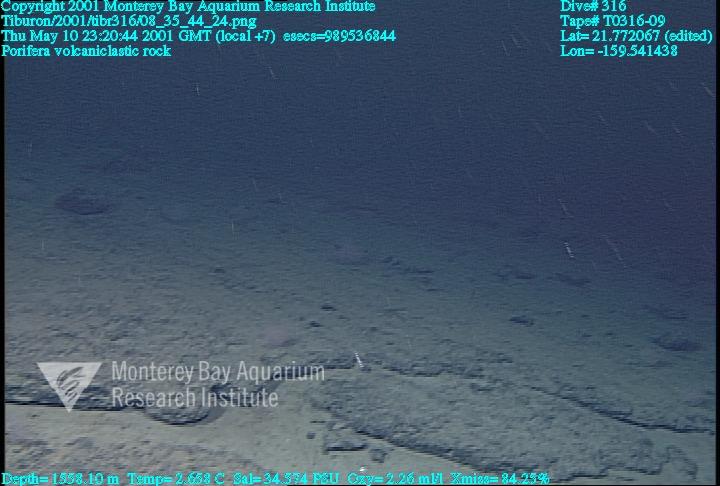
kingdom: Animalia
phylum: Porifera
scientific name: Porifera
